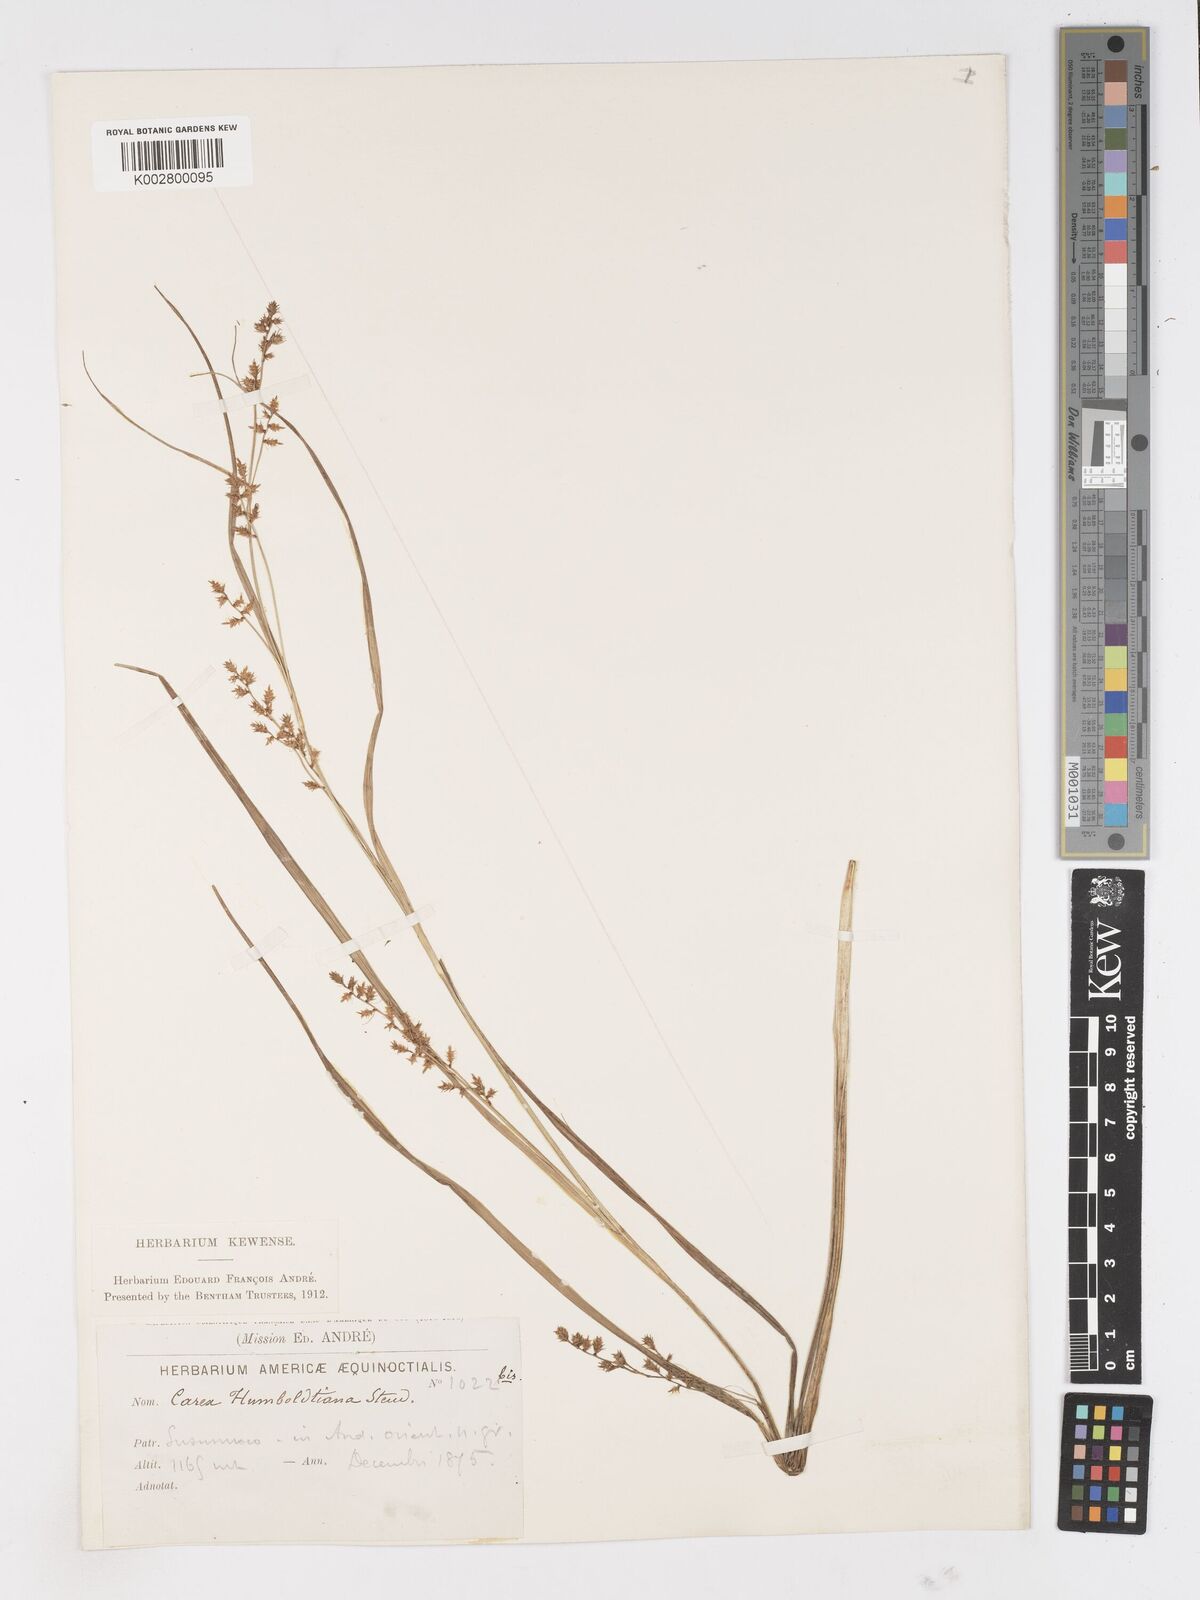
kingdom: Plantae
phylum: Tracheophyta
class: Liliopsida
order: Poales
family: Cyperaceae
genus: Carex
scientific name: Carex polystachya
